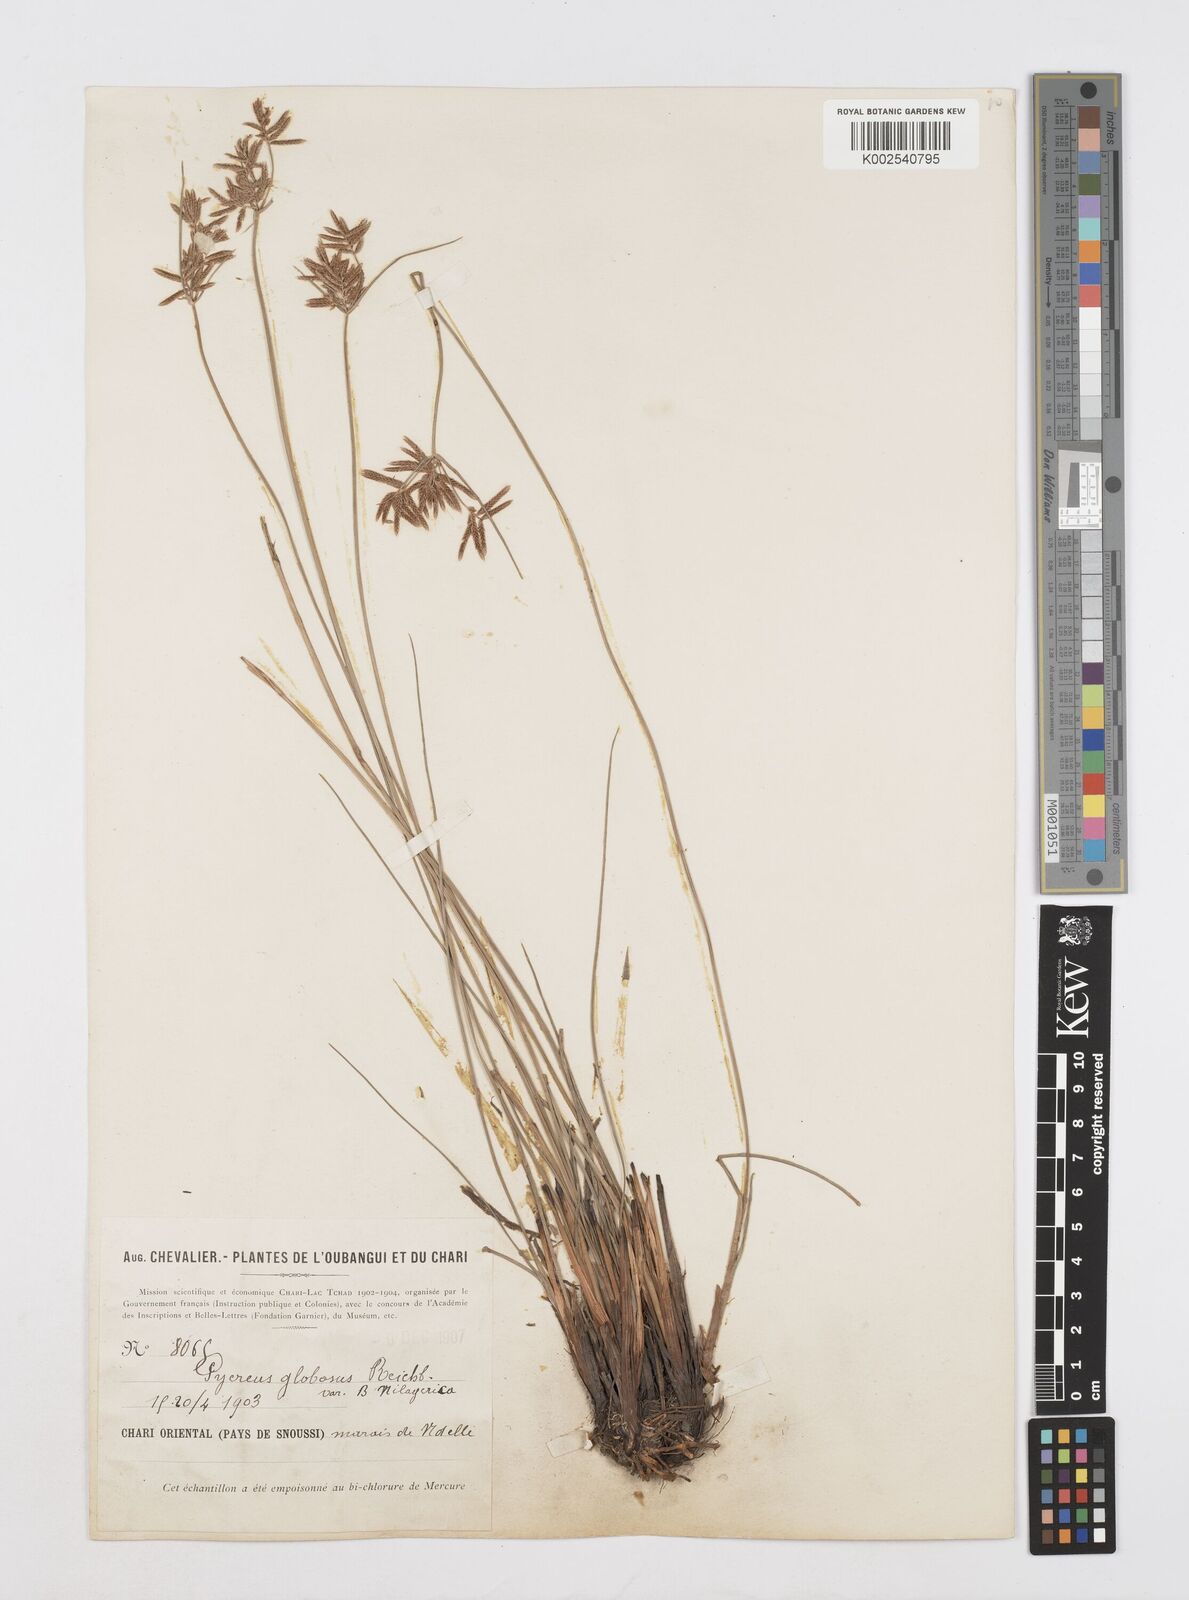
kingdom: Plantae
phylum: Tracheophyta
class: Liliopsida
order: Poales
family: Cyperaceae
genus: Cyperus
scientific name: Cyperus aethiops
